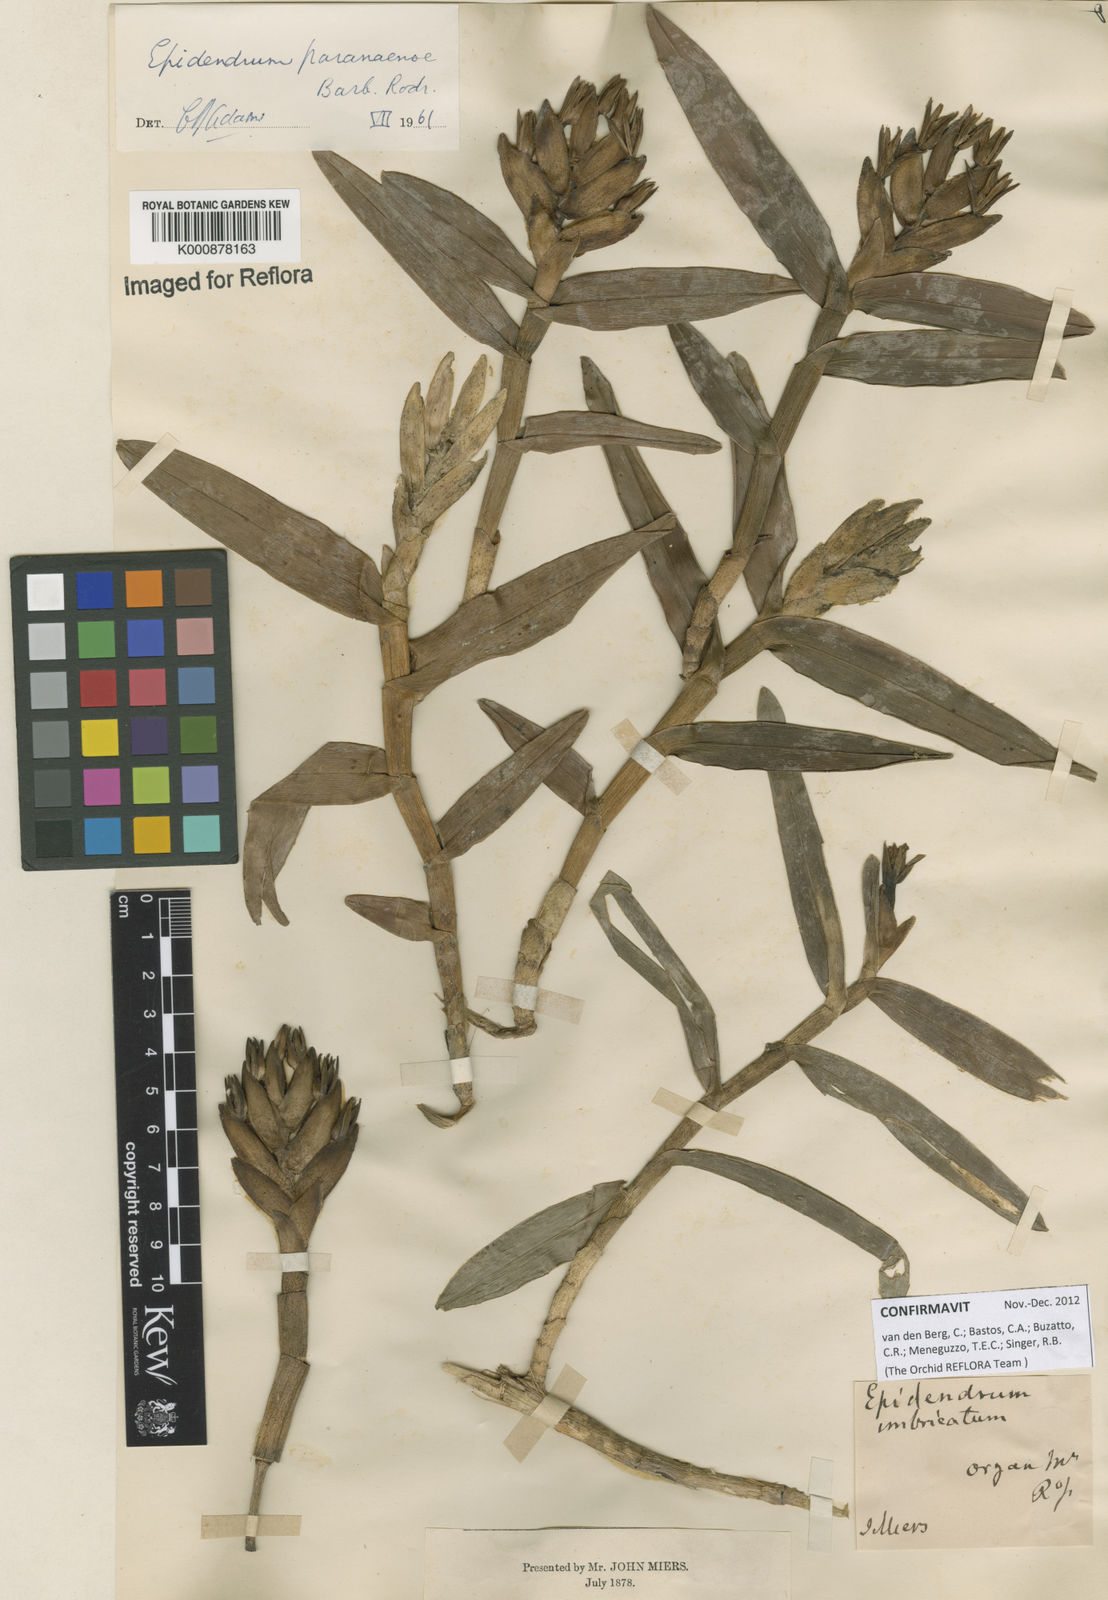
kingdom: Plantae
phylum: Tracheophyta
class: Liliopsida
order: Asparagales
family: Orchidaceae
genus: Epidendrum
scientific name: Epidendrum paranaense
